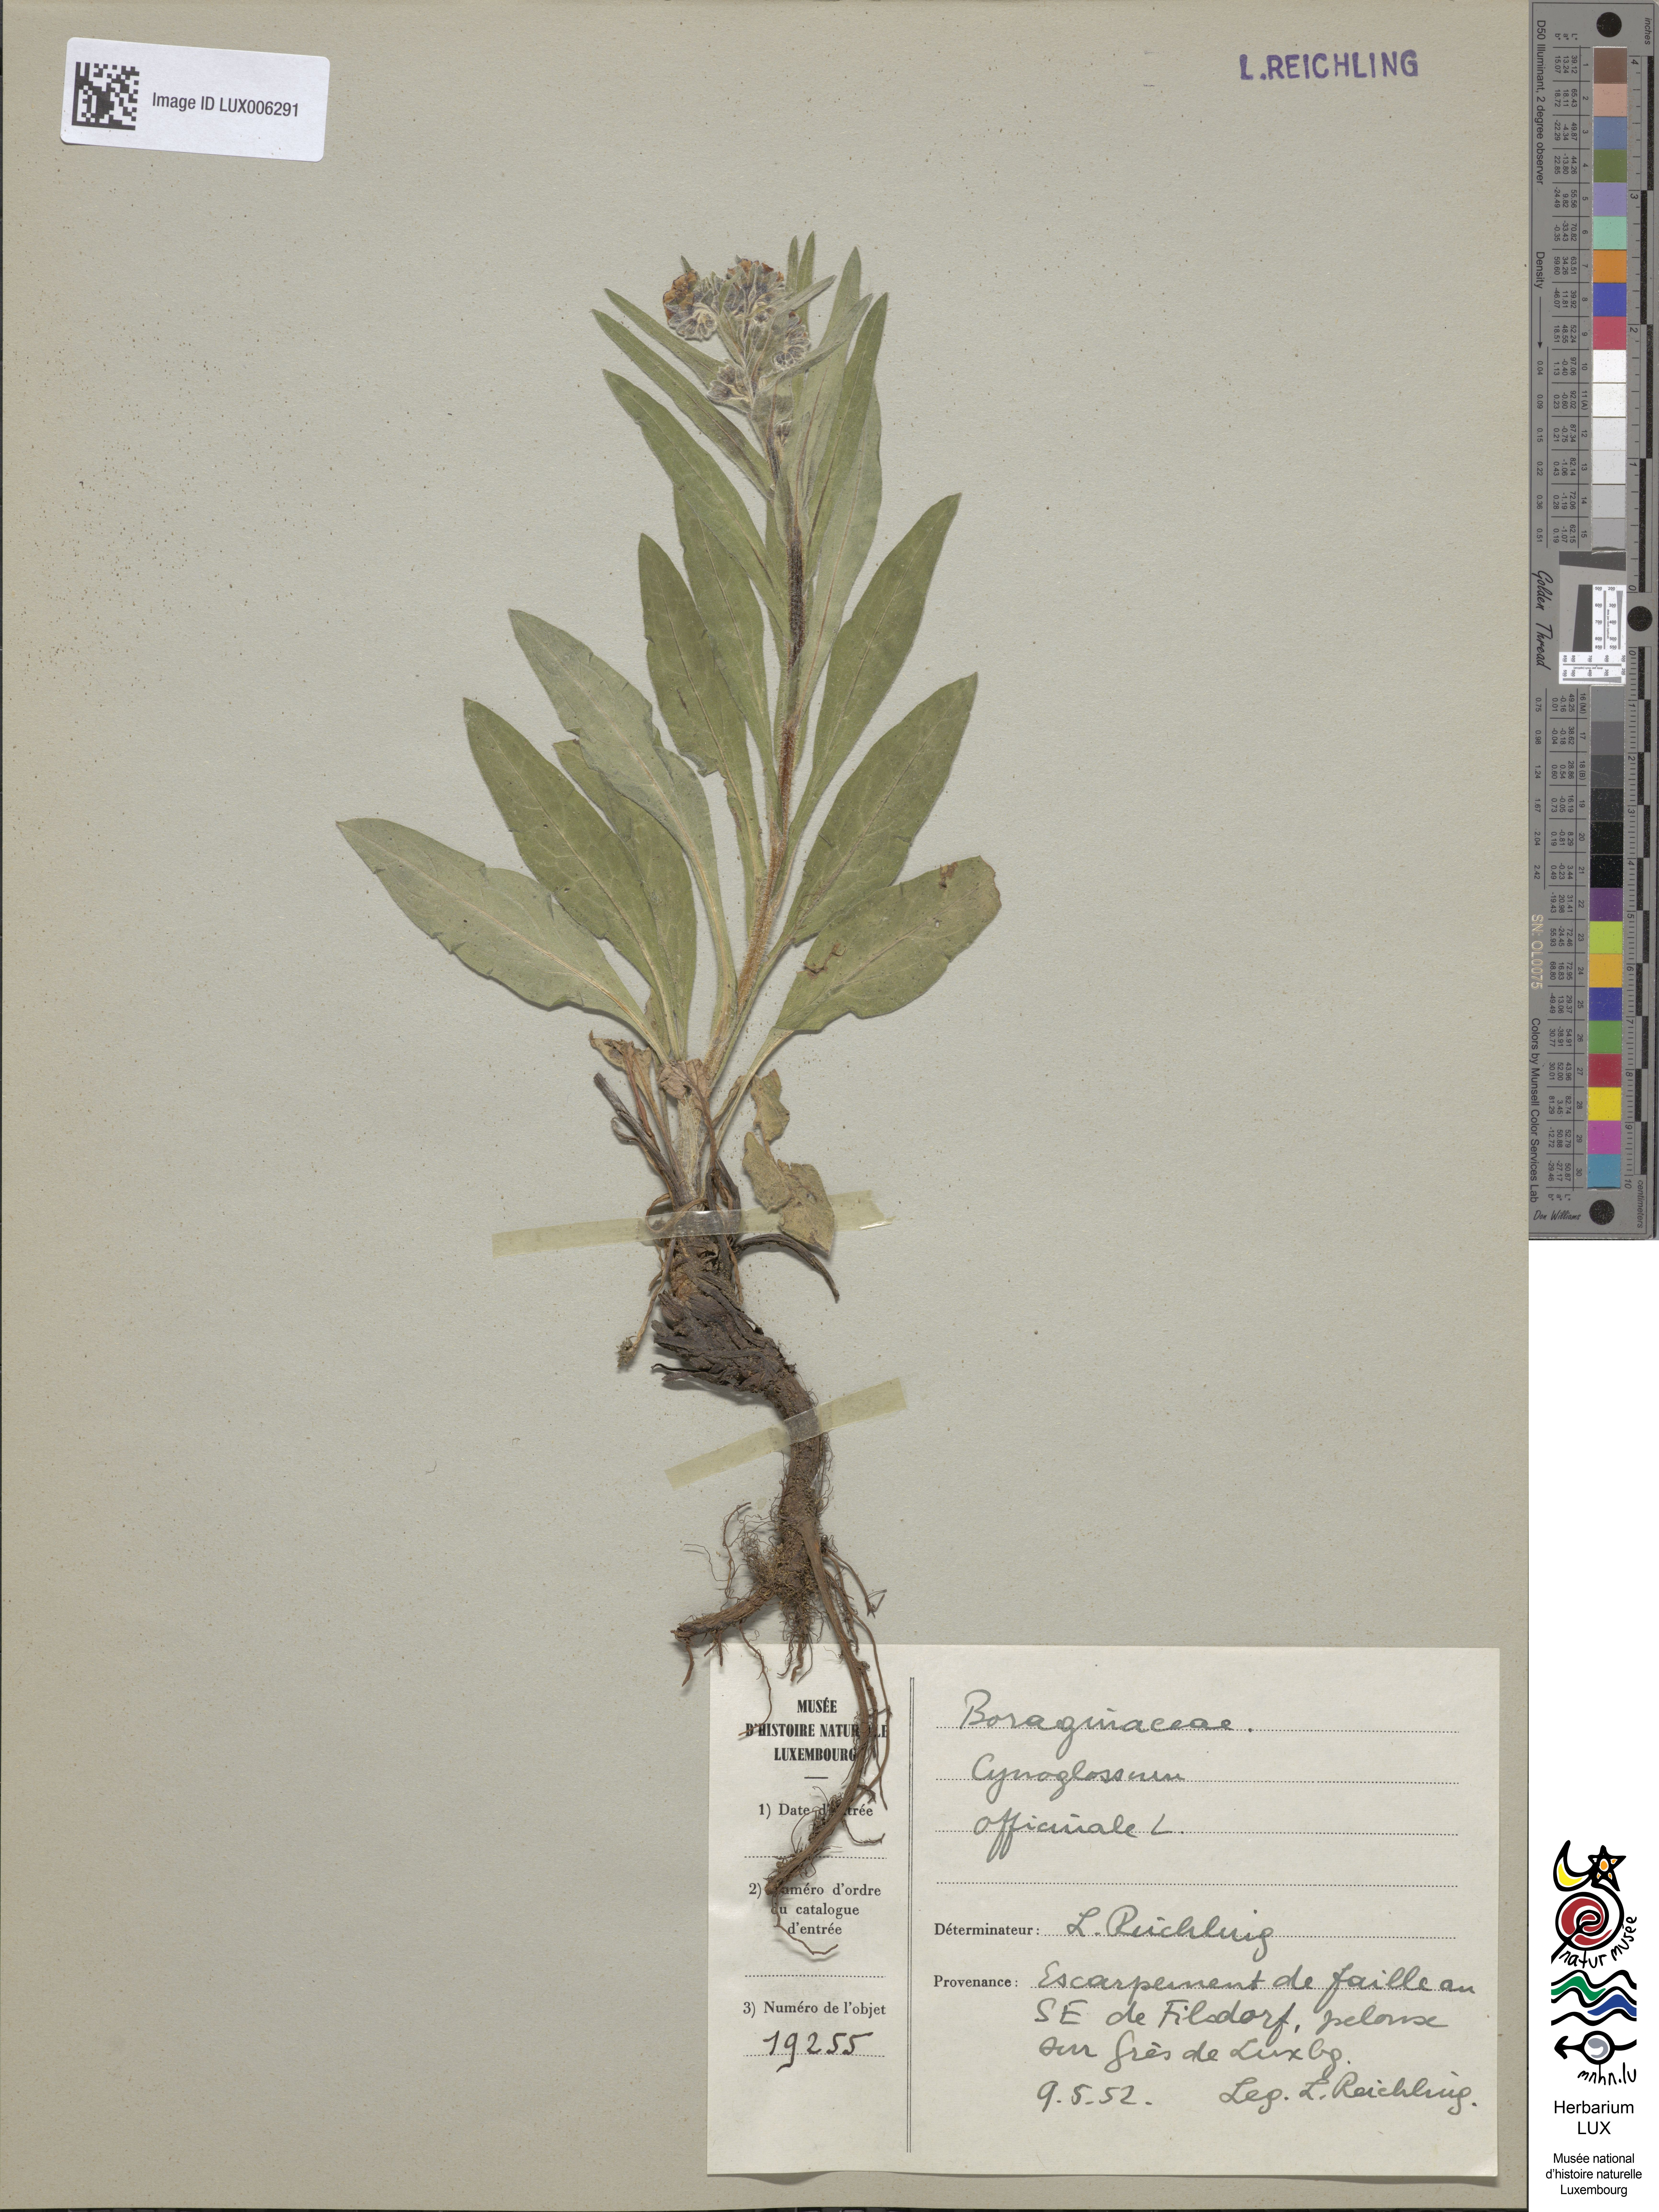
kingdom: Plantae
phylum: Tracheophyta
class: Magnoliopsida
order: Boraginales
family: Boraginaceae
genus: Cynoglossum
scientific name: Cynoglossum officinale
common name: Hound's-tongue
